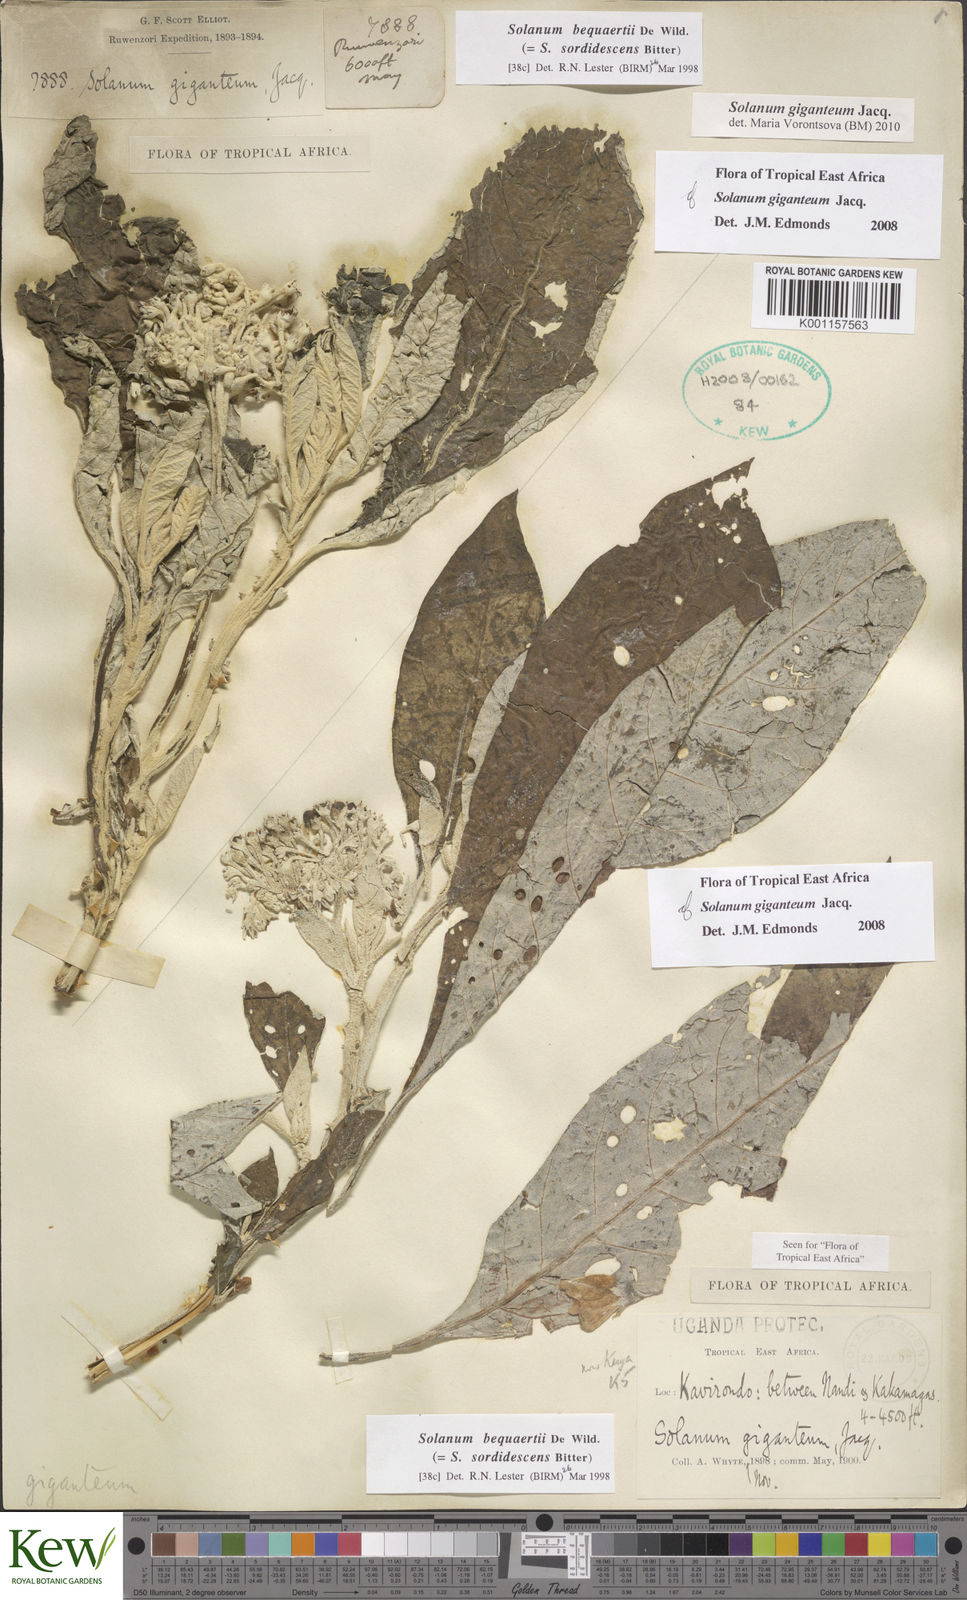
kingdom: Plantae
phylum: Tracheophyta
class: Magnoliopsida
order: Solanales
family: Solanaceae
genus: Solanum
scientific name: Solanum giganteum
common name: Healing-leaf-tree
